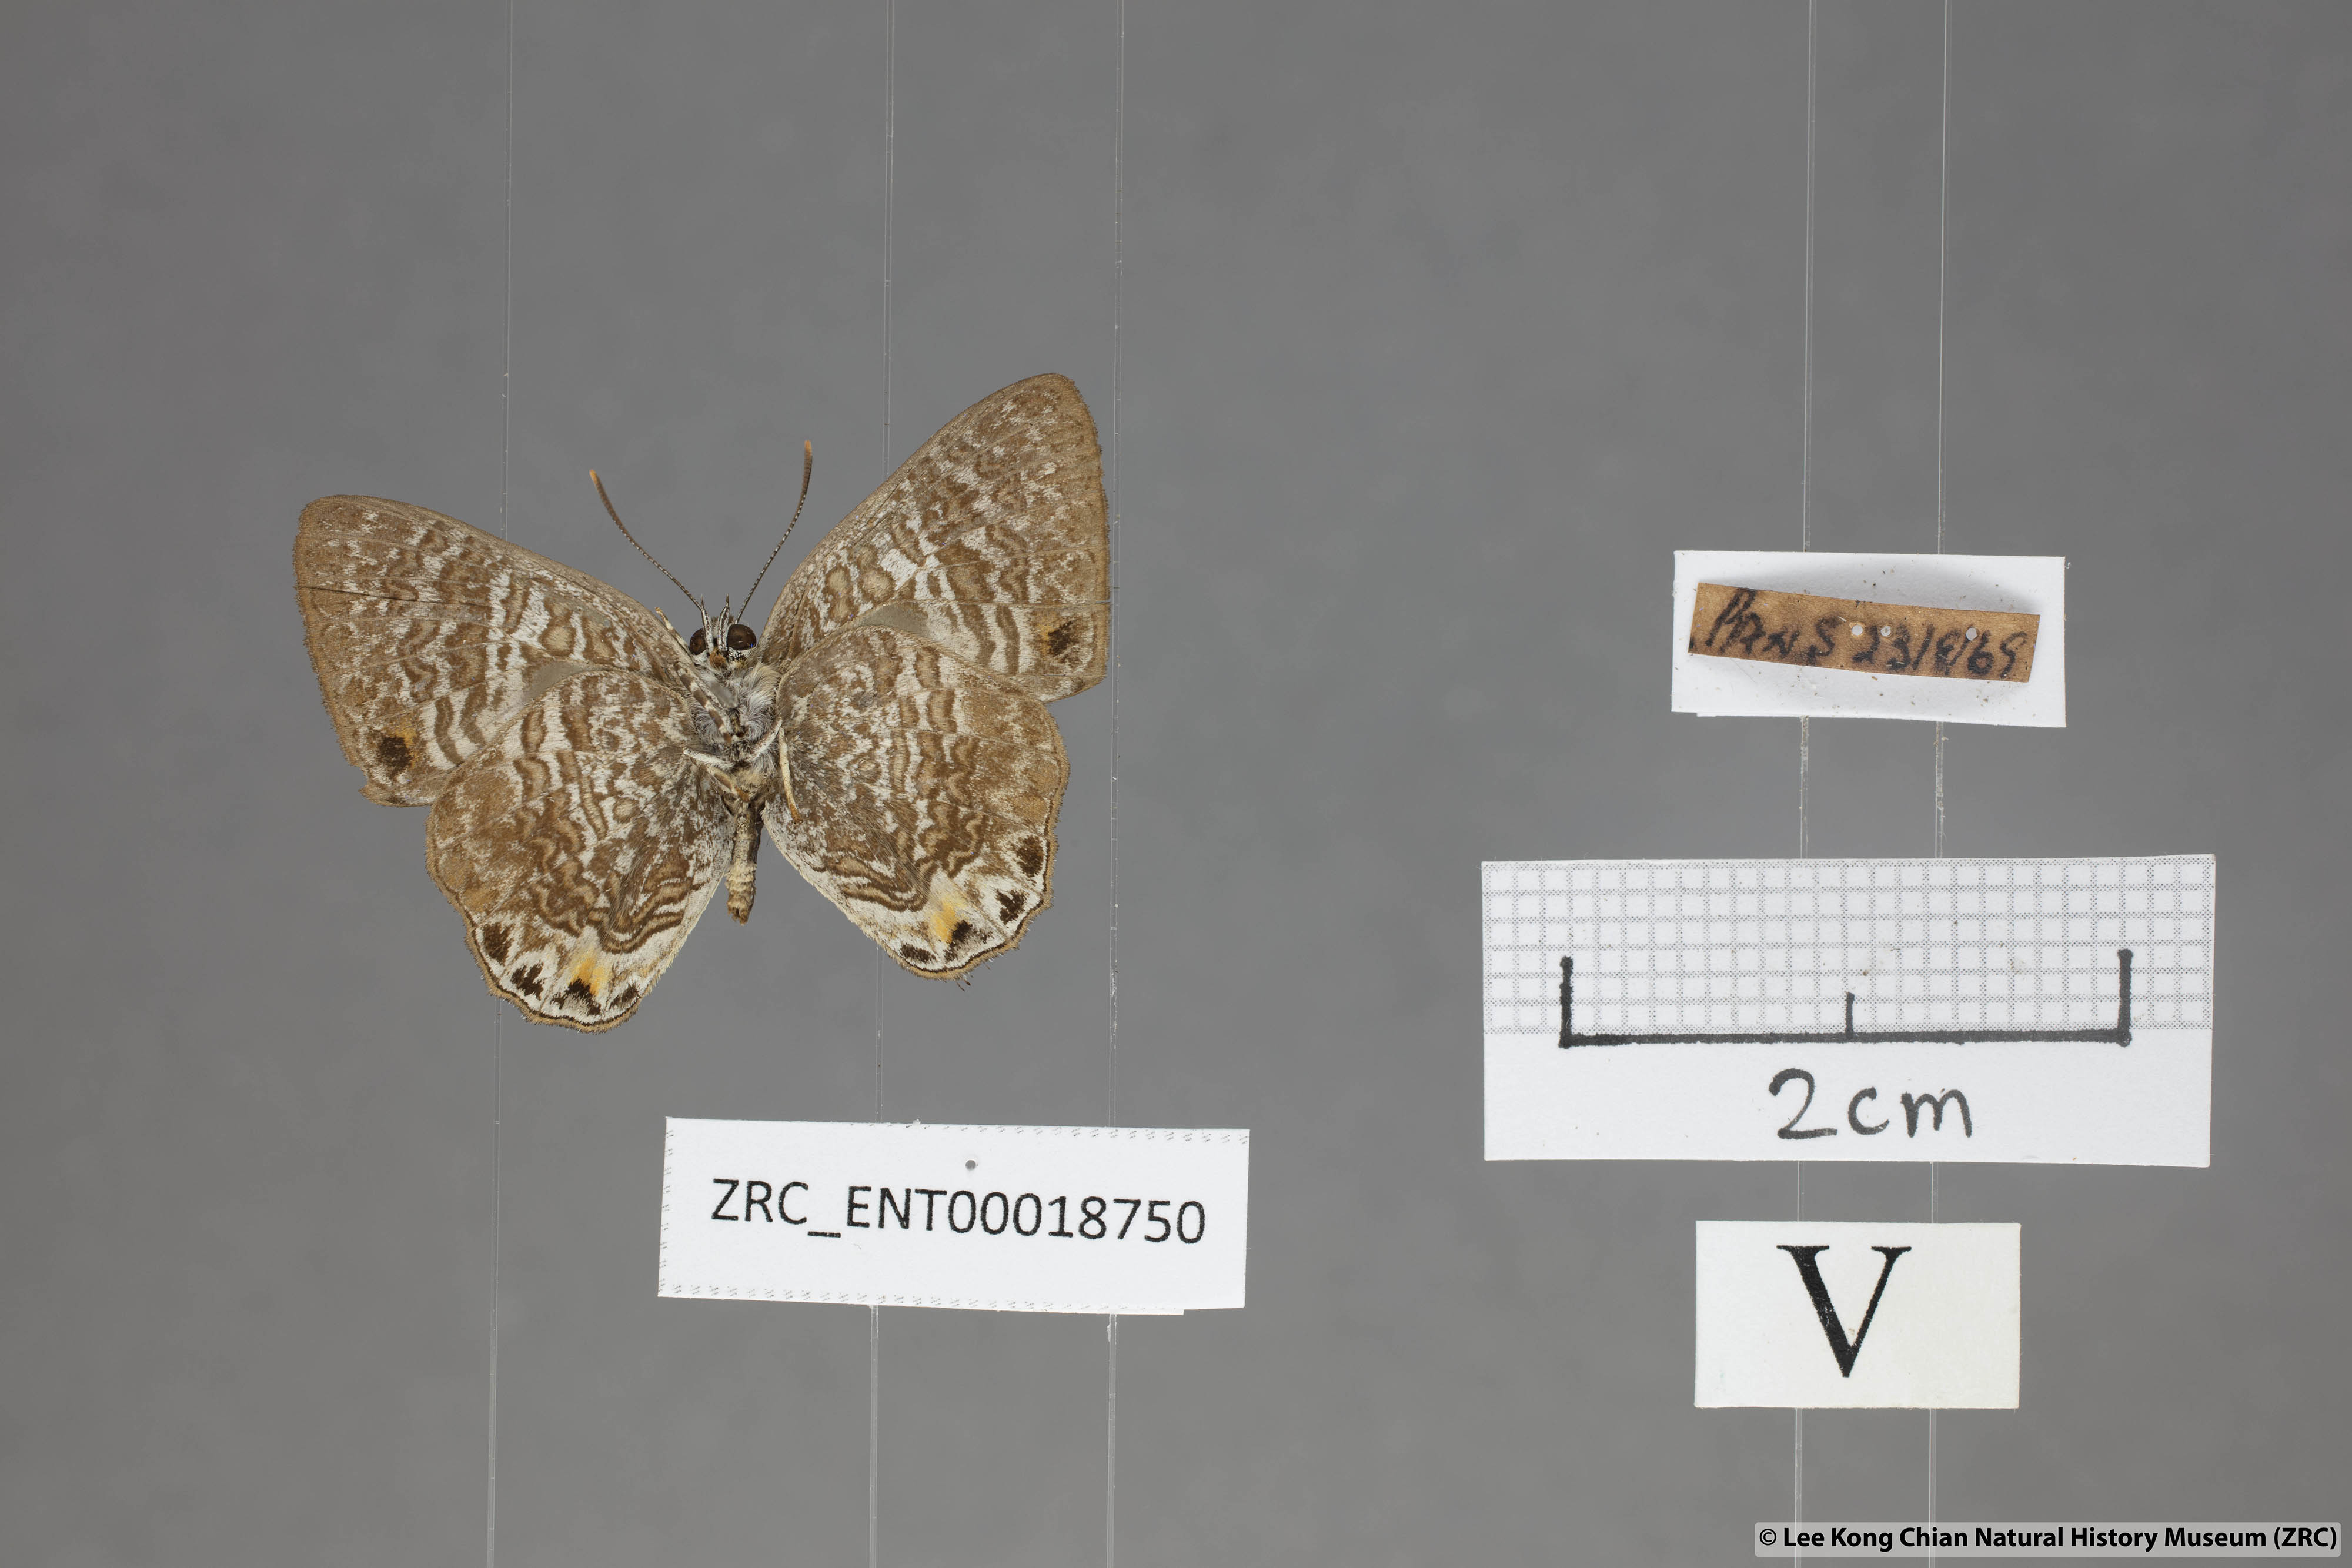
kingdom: Animalia
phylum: Arthropoda
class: Insecta
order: Lepidoptera
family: Lycaenidae
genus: Poritia
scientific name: Poritia erycinoides
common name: Blue gem
